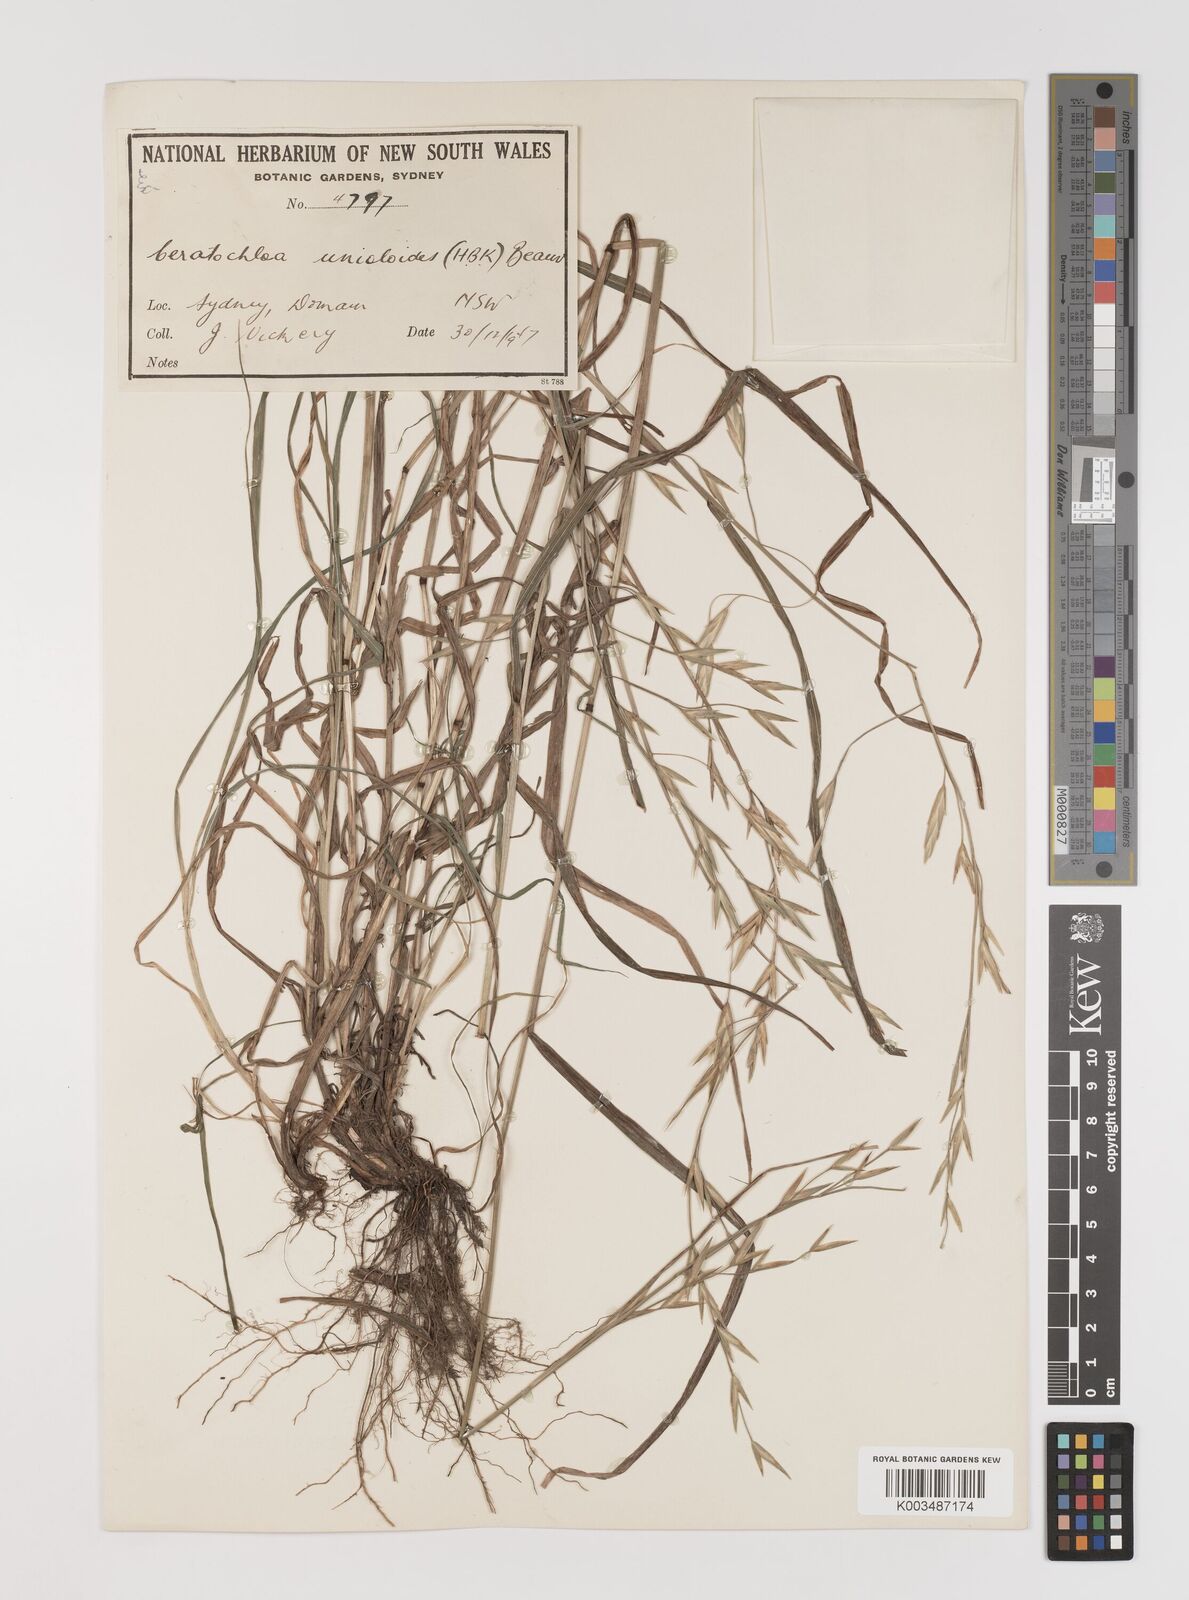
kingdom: Plantae
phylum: Tracheophyta
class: Liliopsida
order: Poales
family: Poaceae
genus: Bromus
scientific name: Bromus catharticus
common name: Rescuegrass
